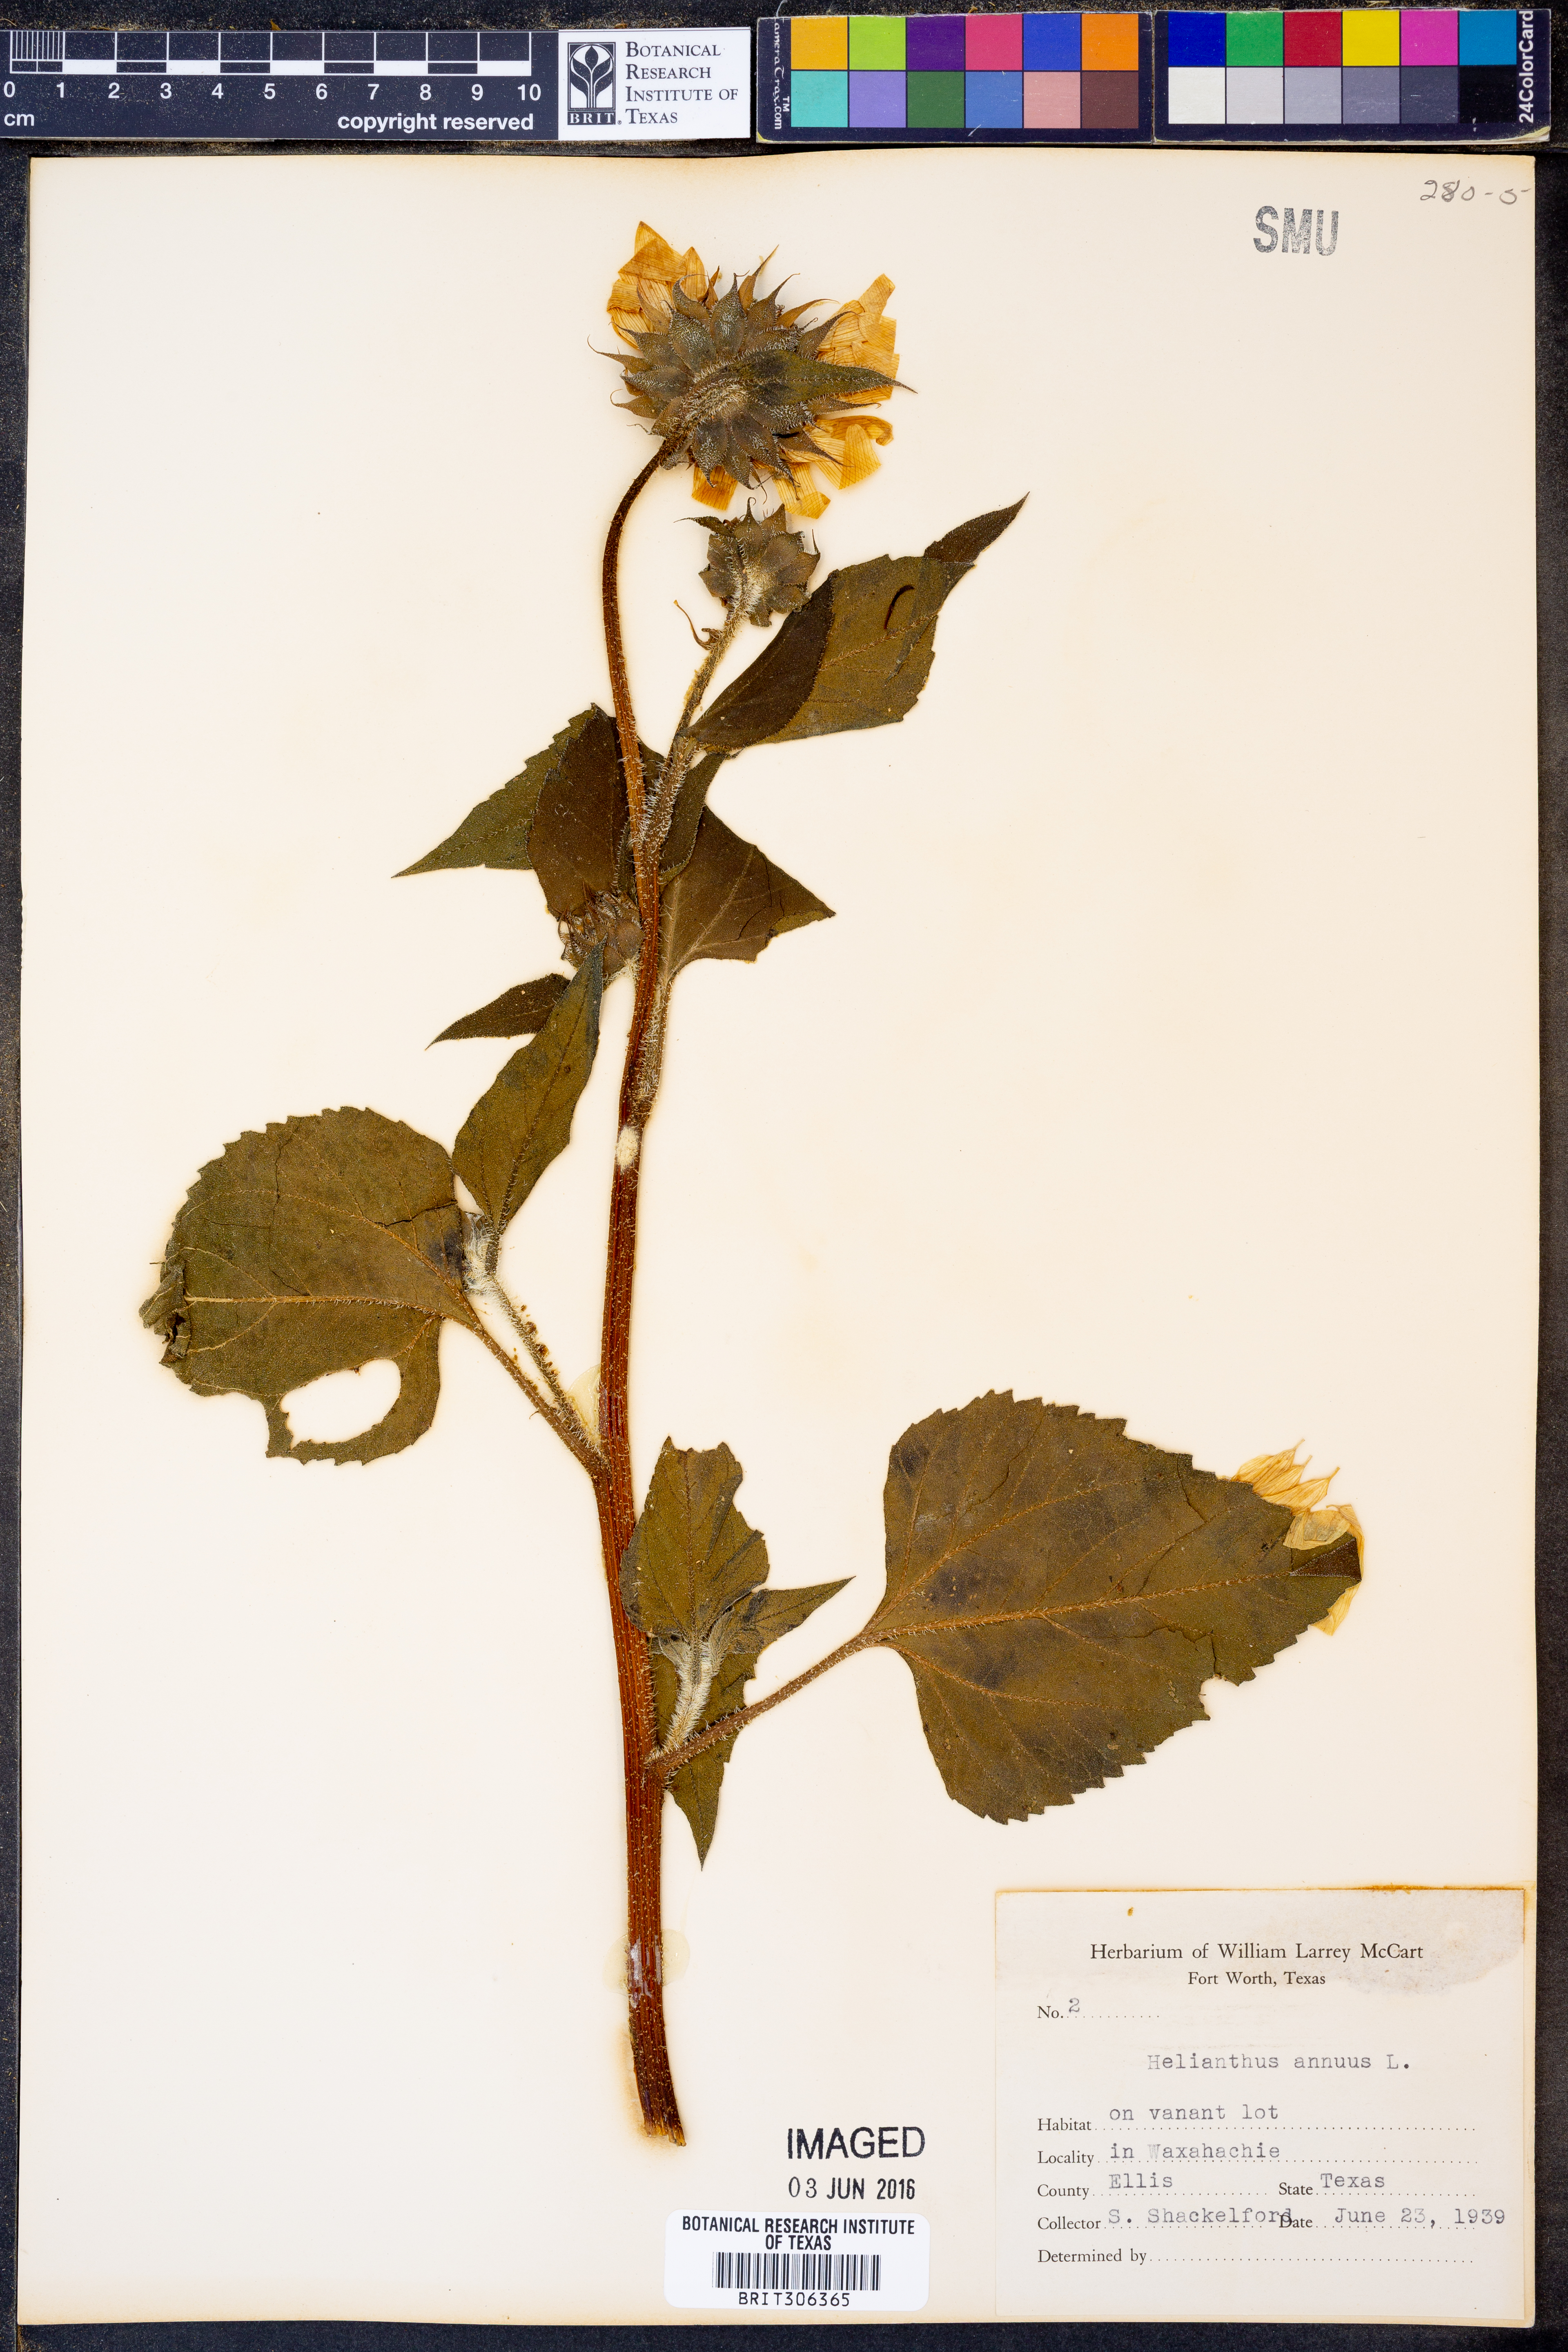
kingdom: Plantae
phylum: Tracheophyta
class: Magnoliopsida
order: Asterales
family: Asteraceae
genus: Helianthus
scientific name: Helianthus annuus
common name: Sunflower
